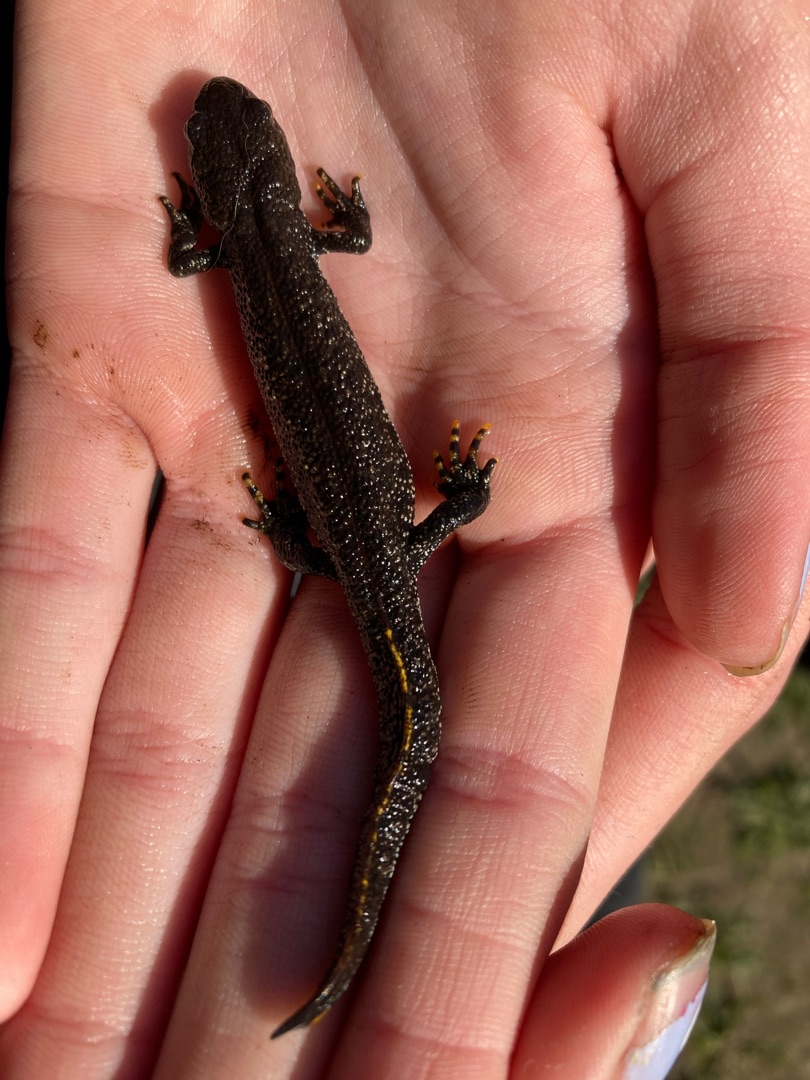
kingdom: Animalia
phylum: Chordata
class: Amphibia
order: Caudata
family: Salamandridae
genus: Triturus
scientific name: Triturus cristatus
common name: Stor vandsalamander
